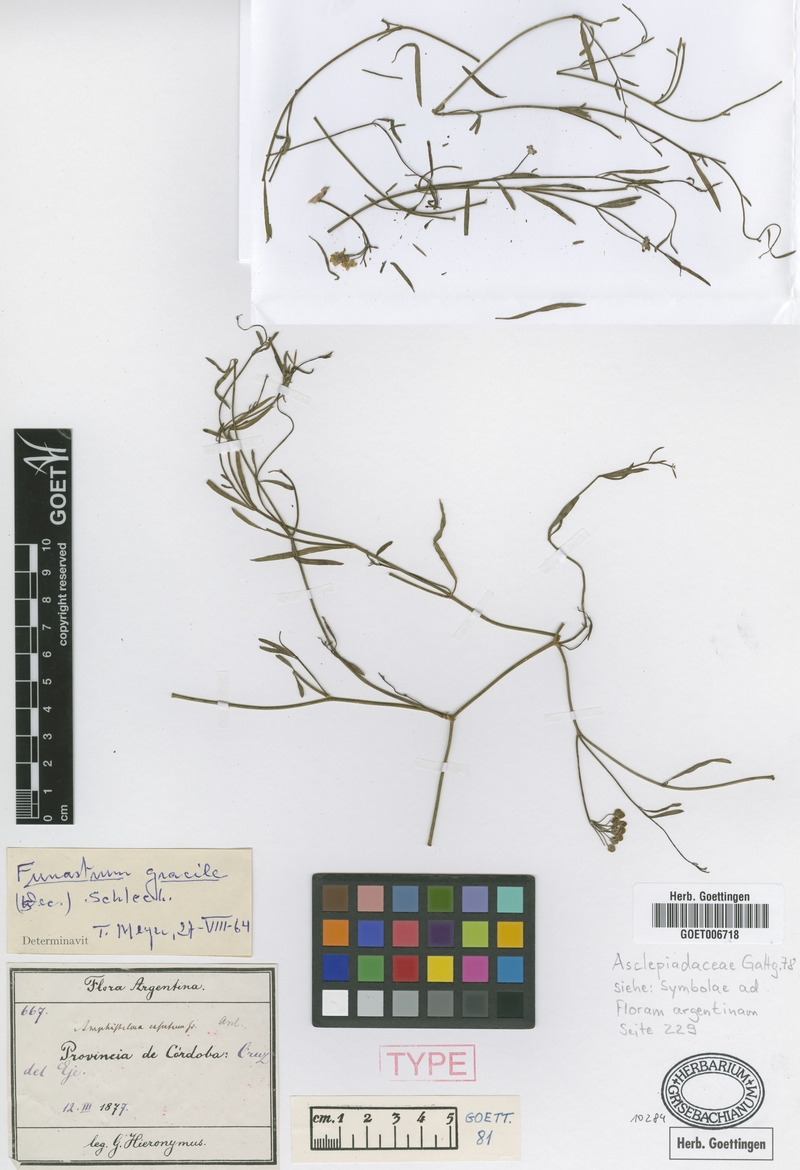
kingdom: Plantae
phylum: Tracheophyta
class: Magnoliopsida
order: Gentianales
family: Apocynaceae
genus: Funastrum
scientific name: Funastrum gracile
